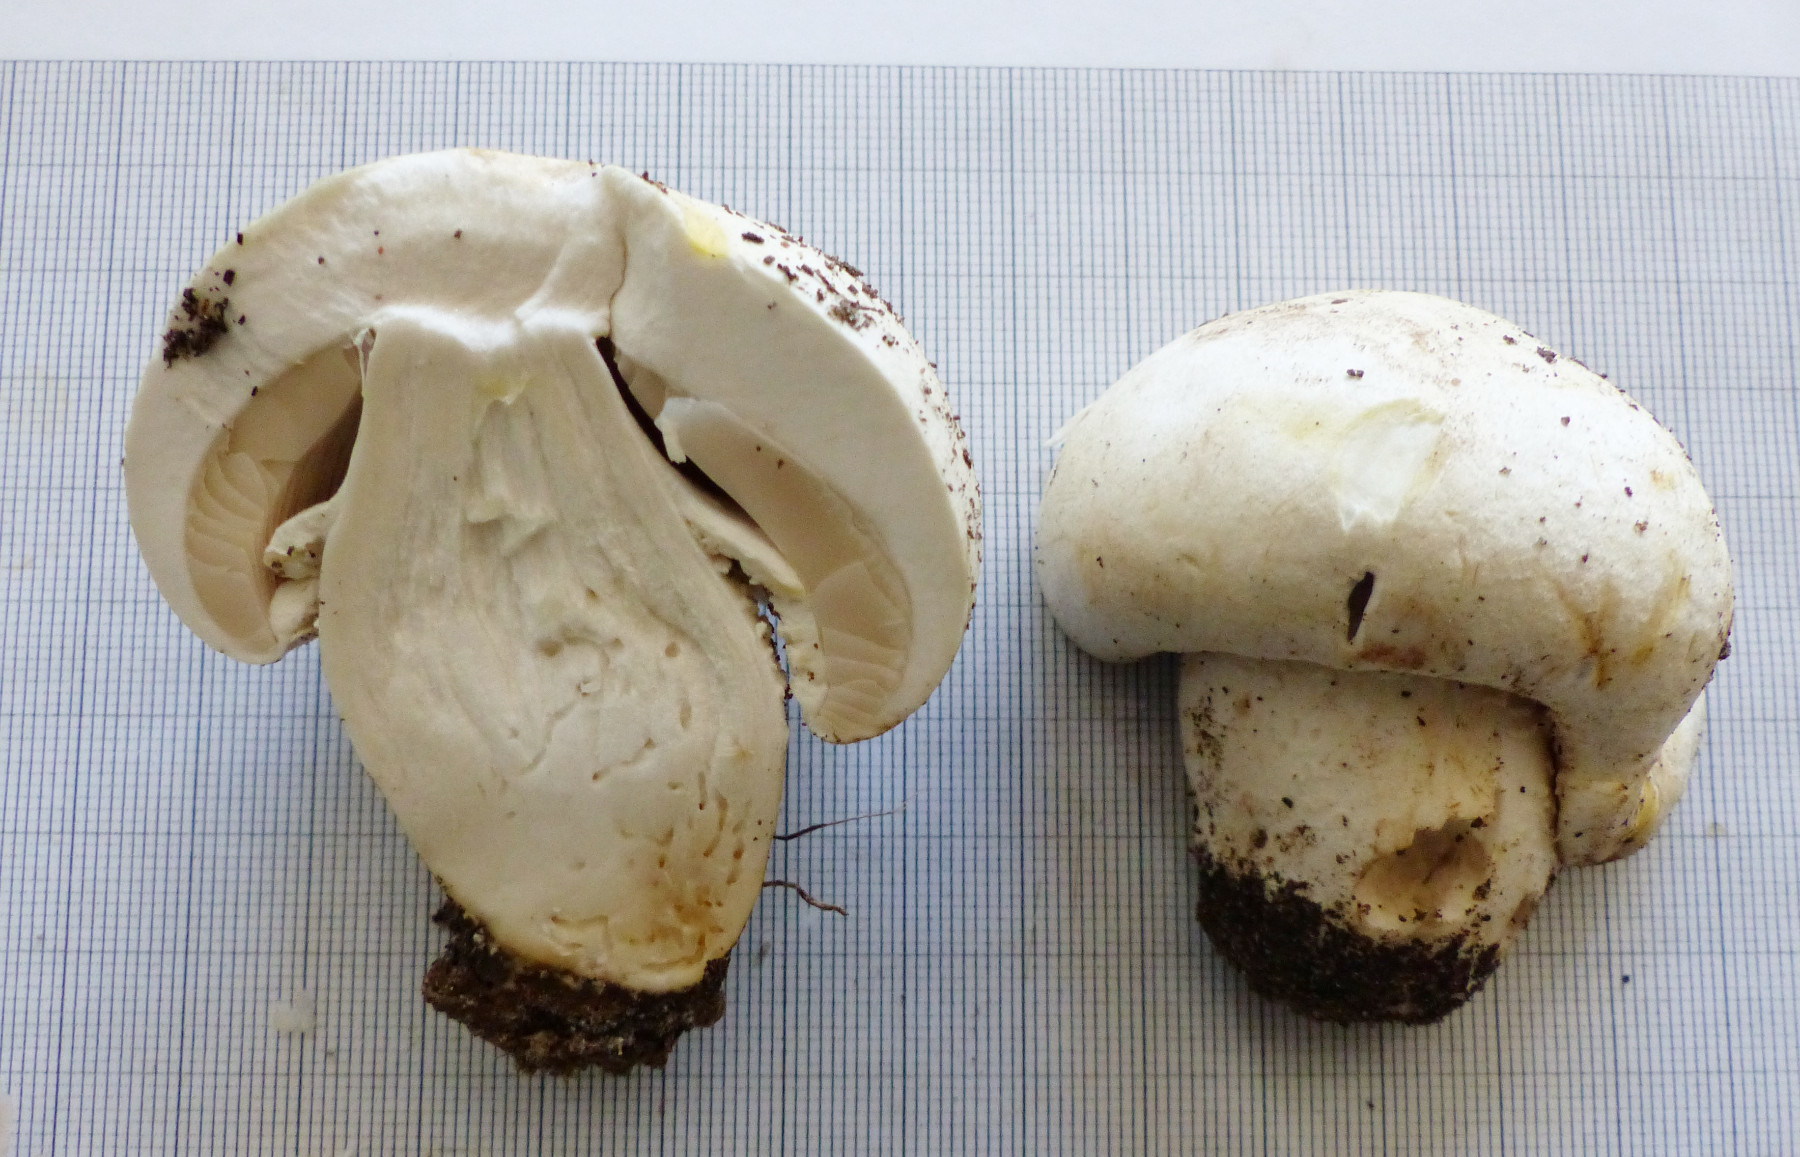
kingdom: Fungi
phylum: Basidiomycota
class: Agaricomycetes
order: Agaricales
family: Agaricaceae
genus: Agaricus
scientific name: Agaricus
